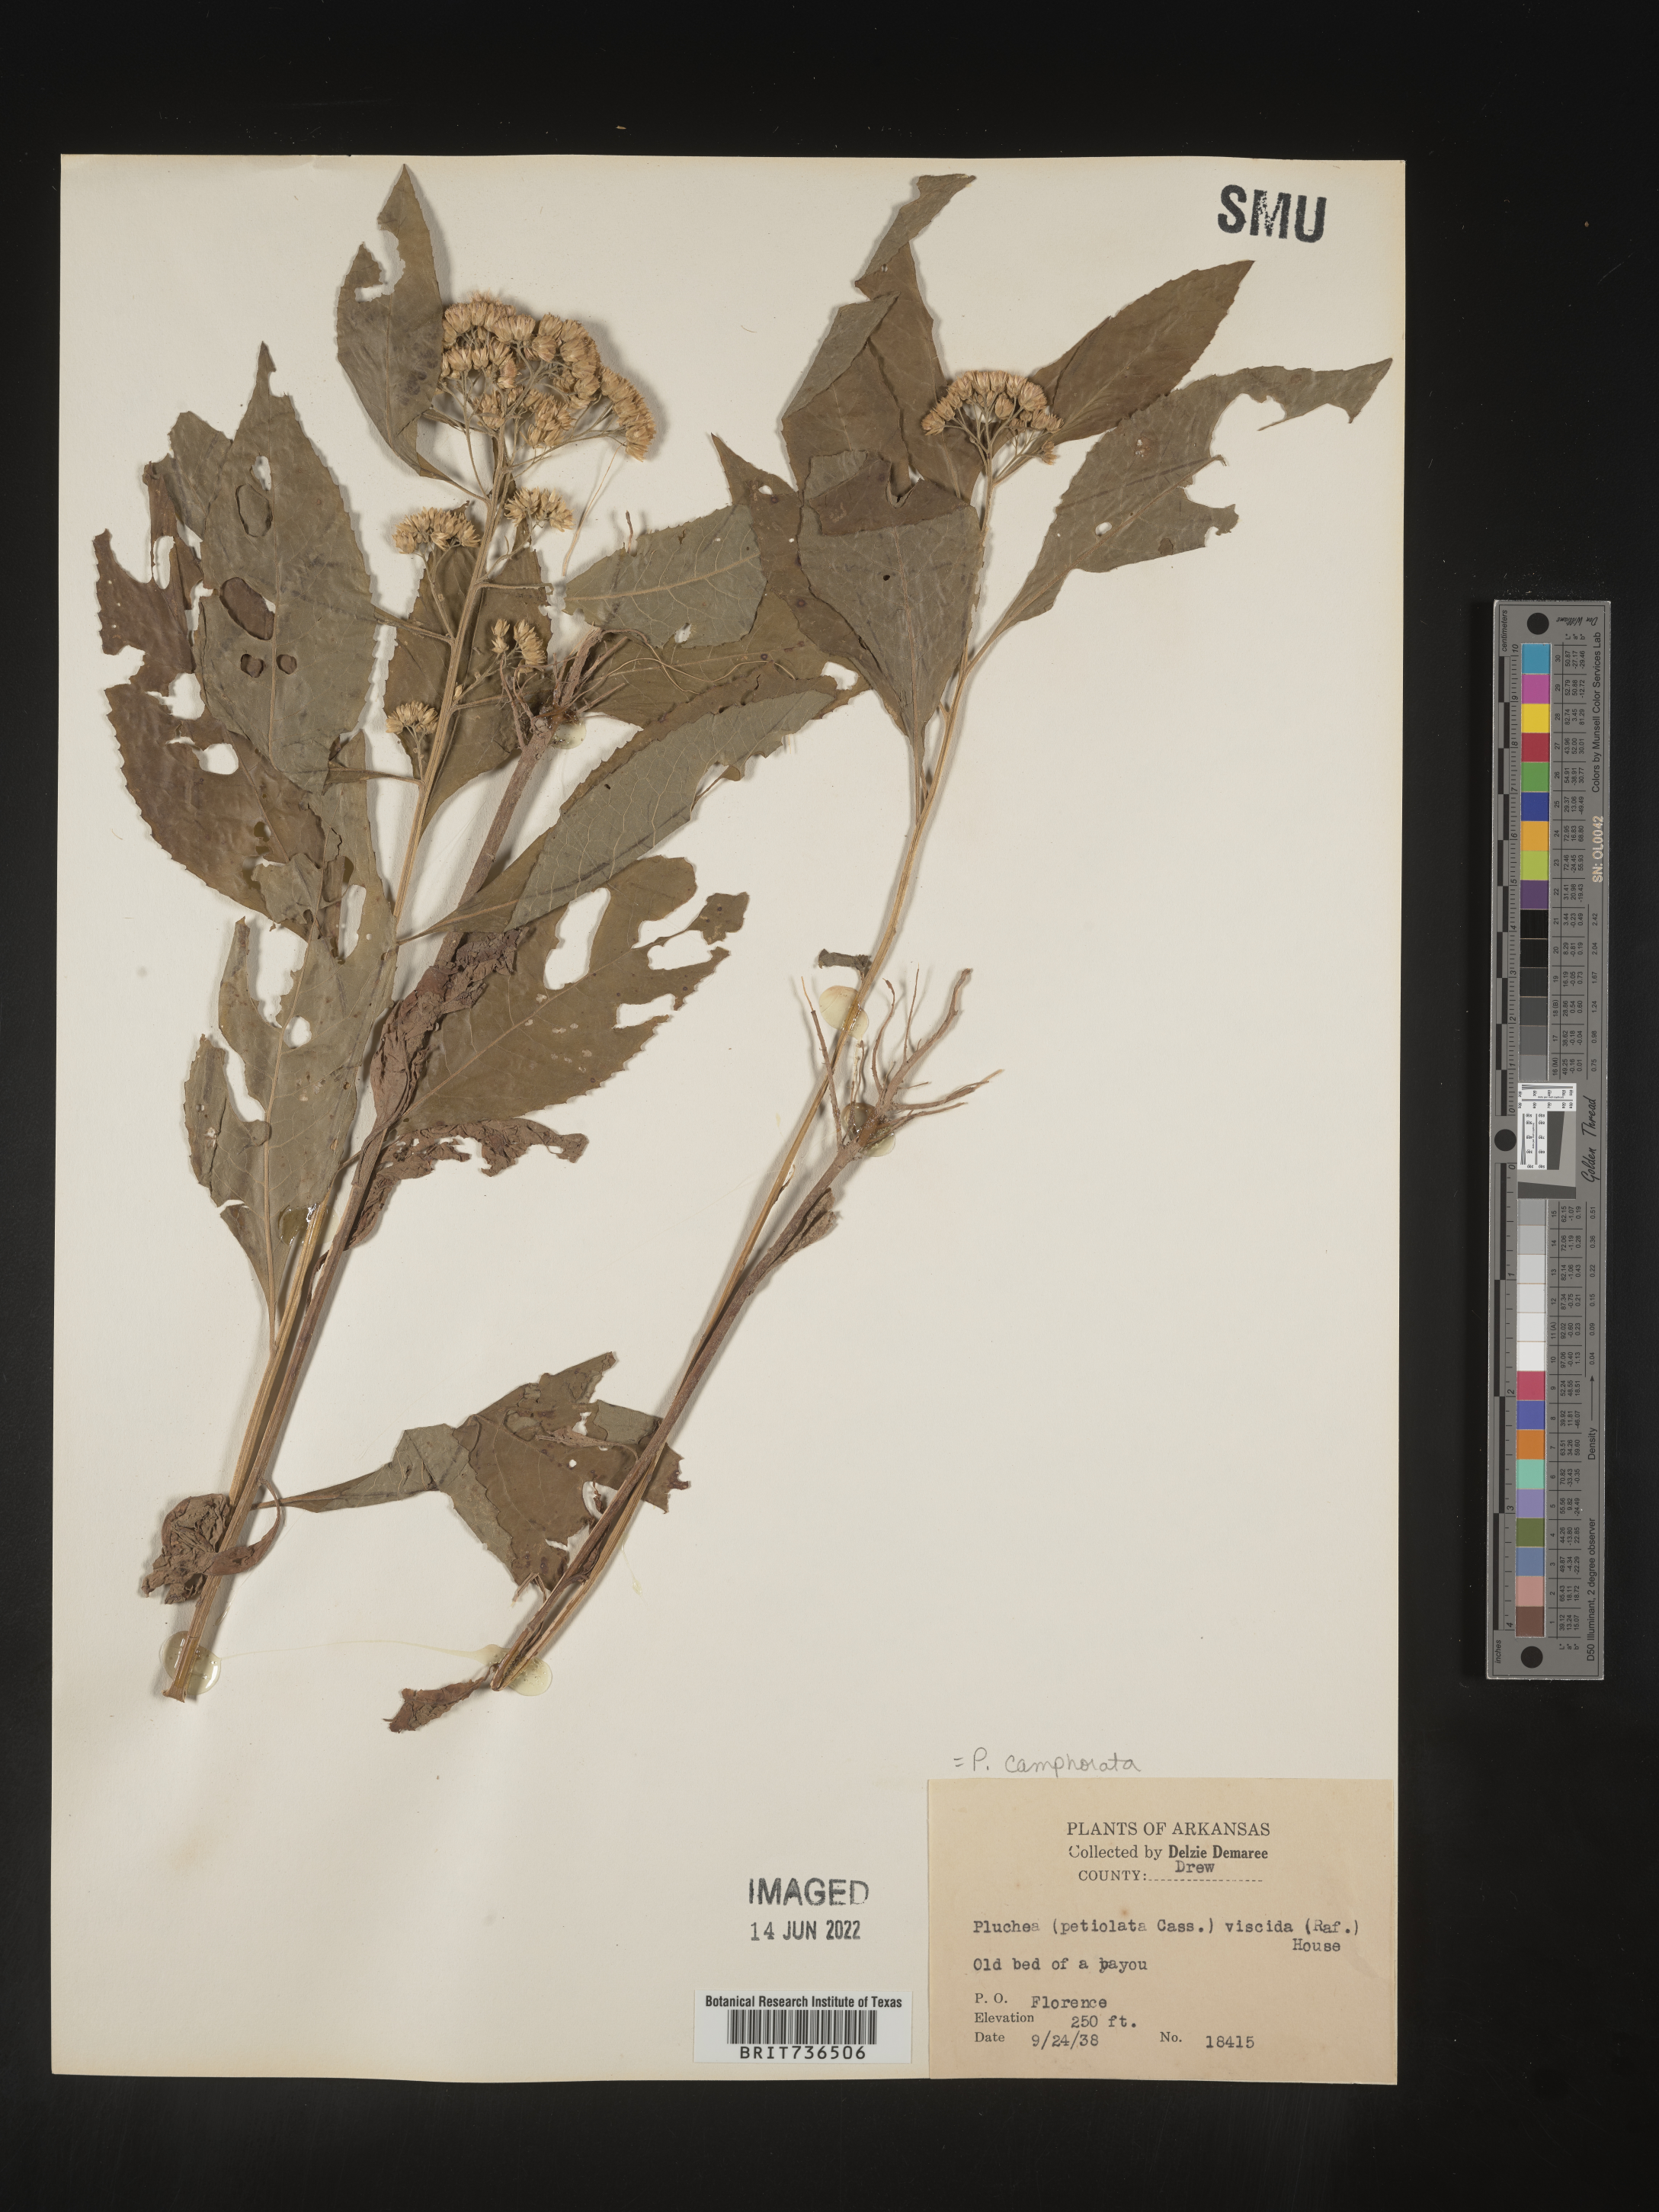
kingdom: Plantae
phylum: Tracheophyta
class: Magnoliopsida
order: Asterales
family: Asteraceae
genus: Pluchea
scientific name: Pluchea camphorata
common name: Camphor pluchea
